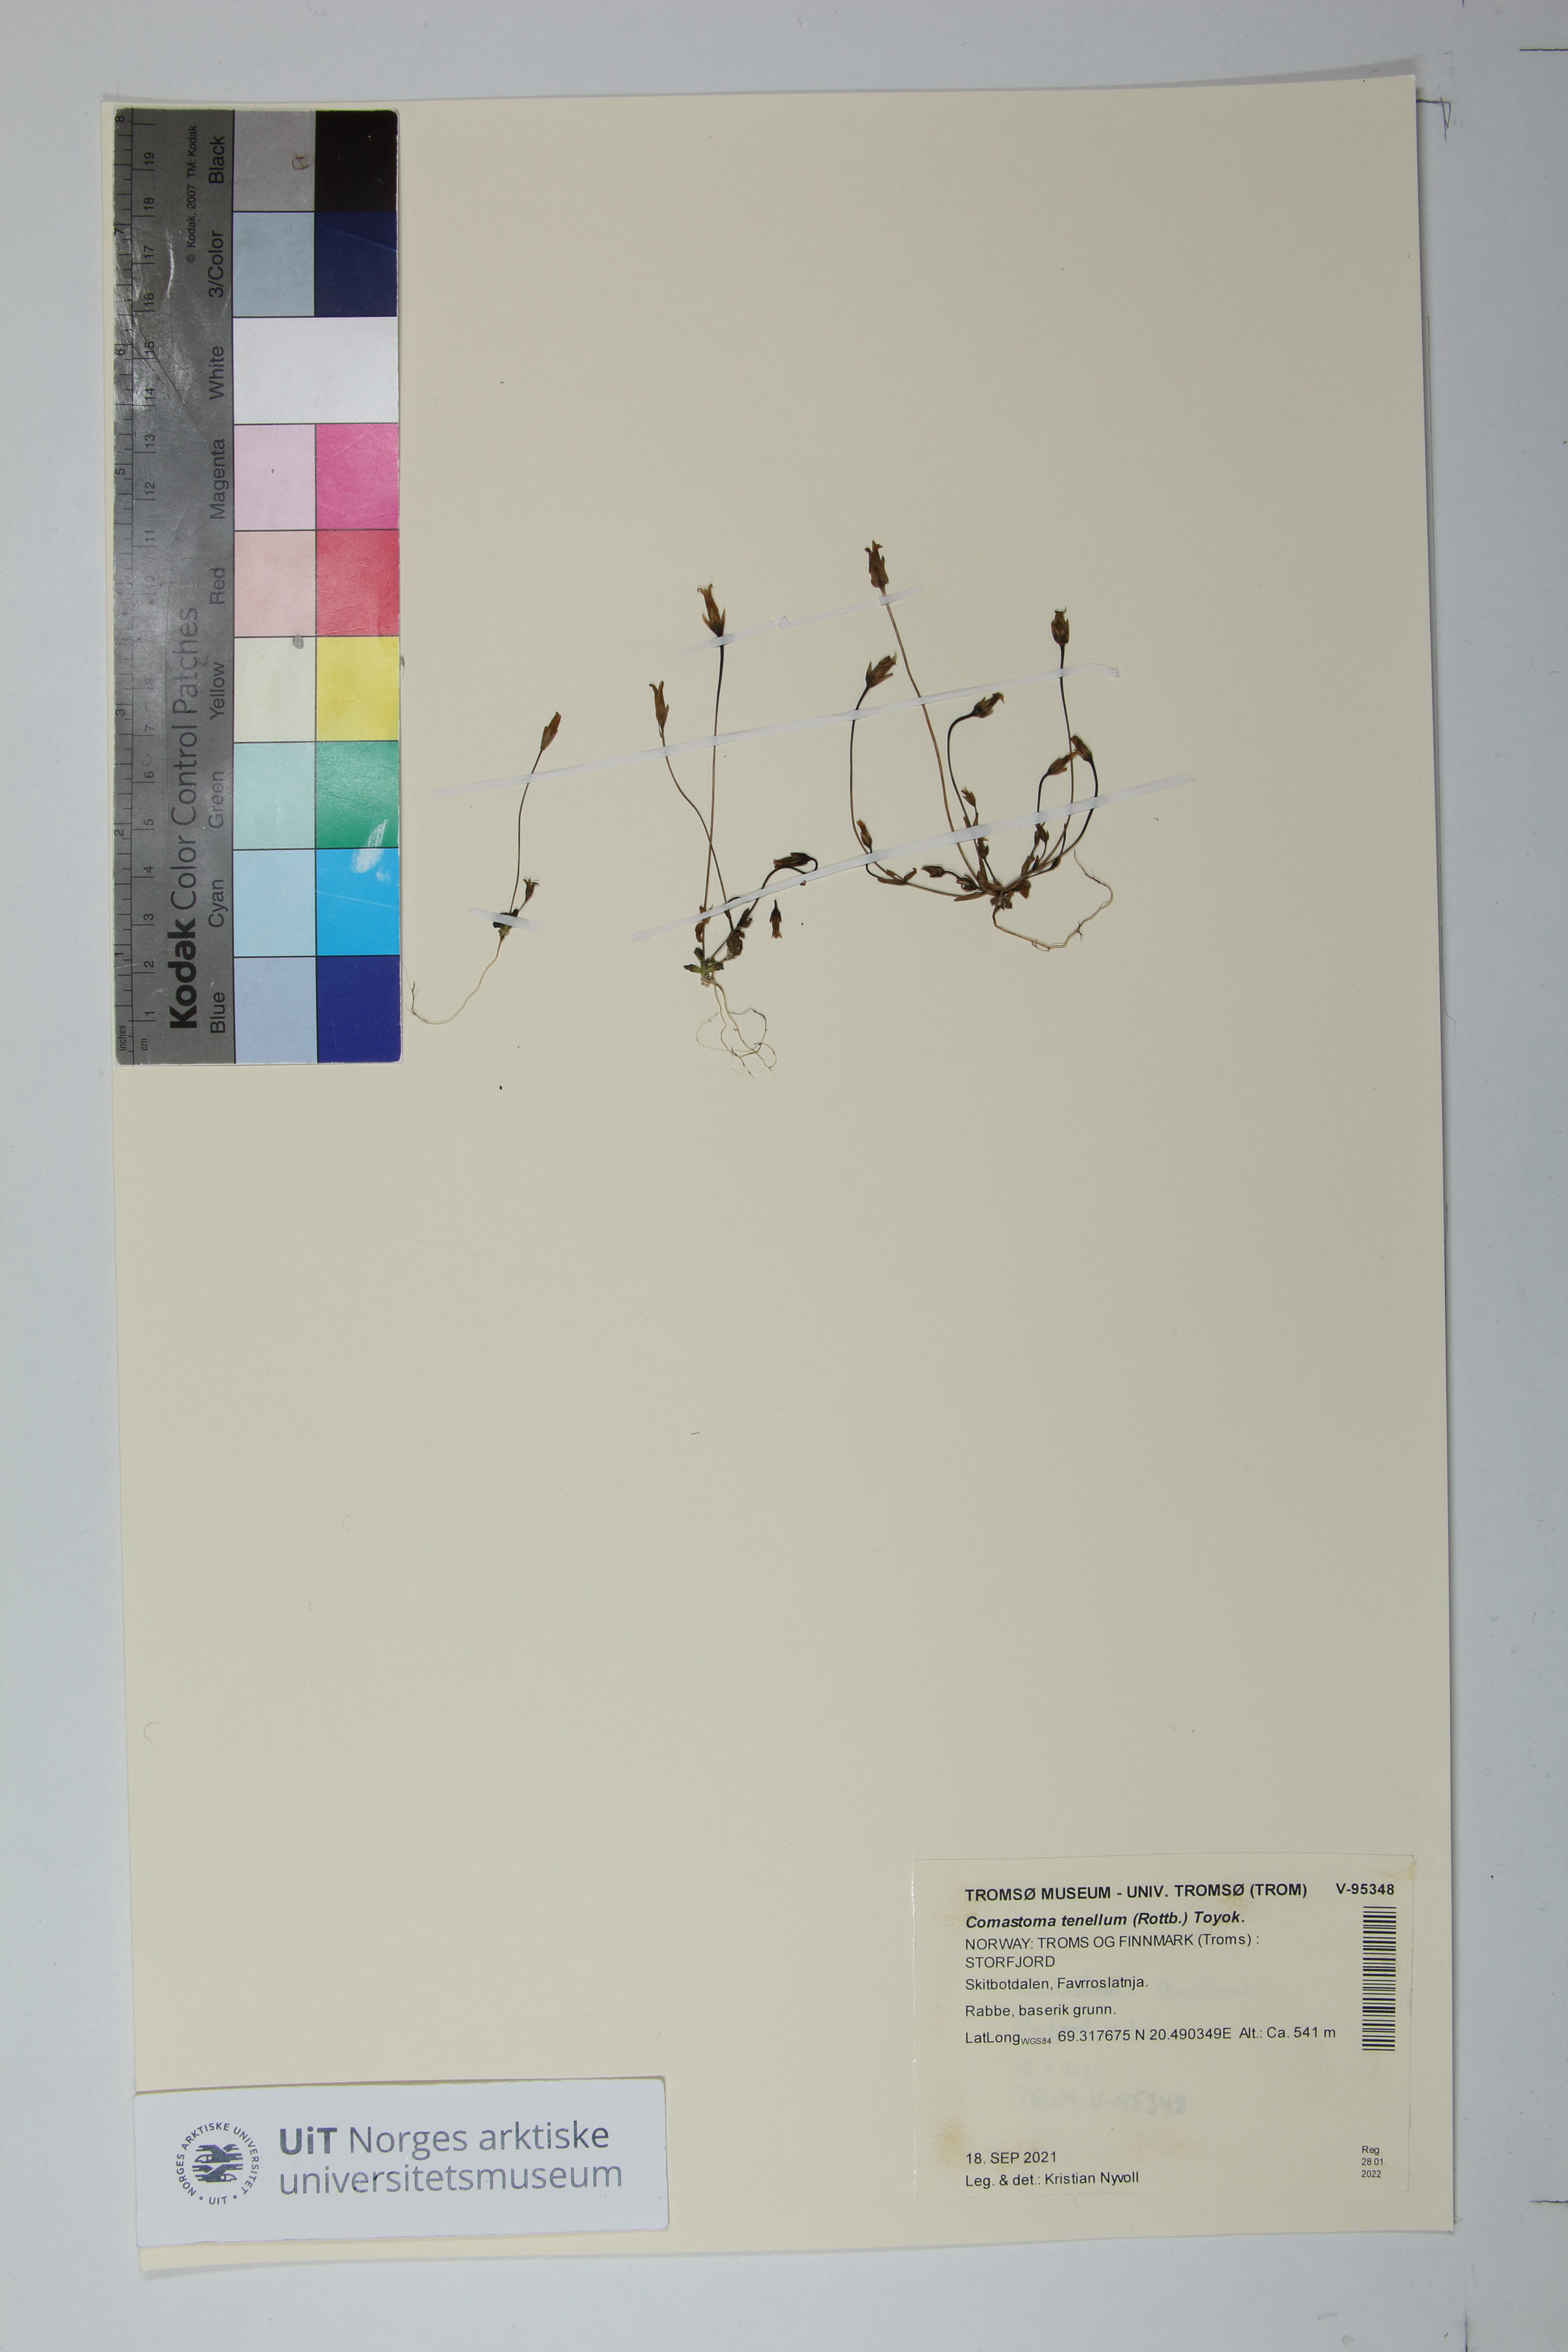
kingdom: Plantae
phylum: Tracheophyta
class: Magnoliopsida
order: Gentianales
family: Gentianaceae
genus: Comastoma
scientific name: Comastoma tenellum
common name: Dane's dwarf gentian
